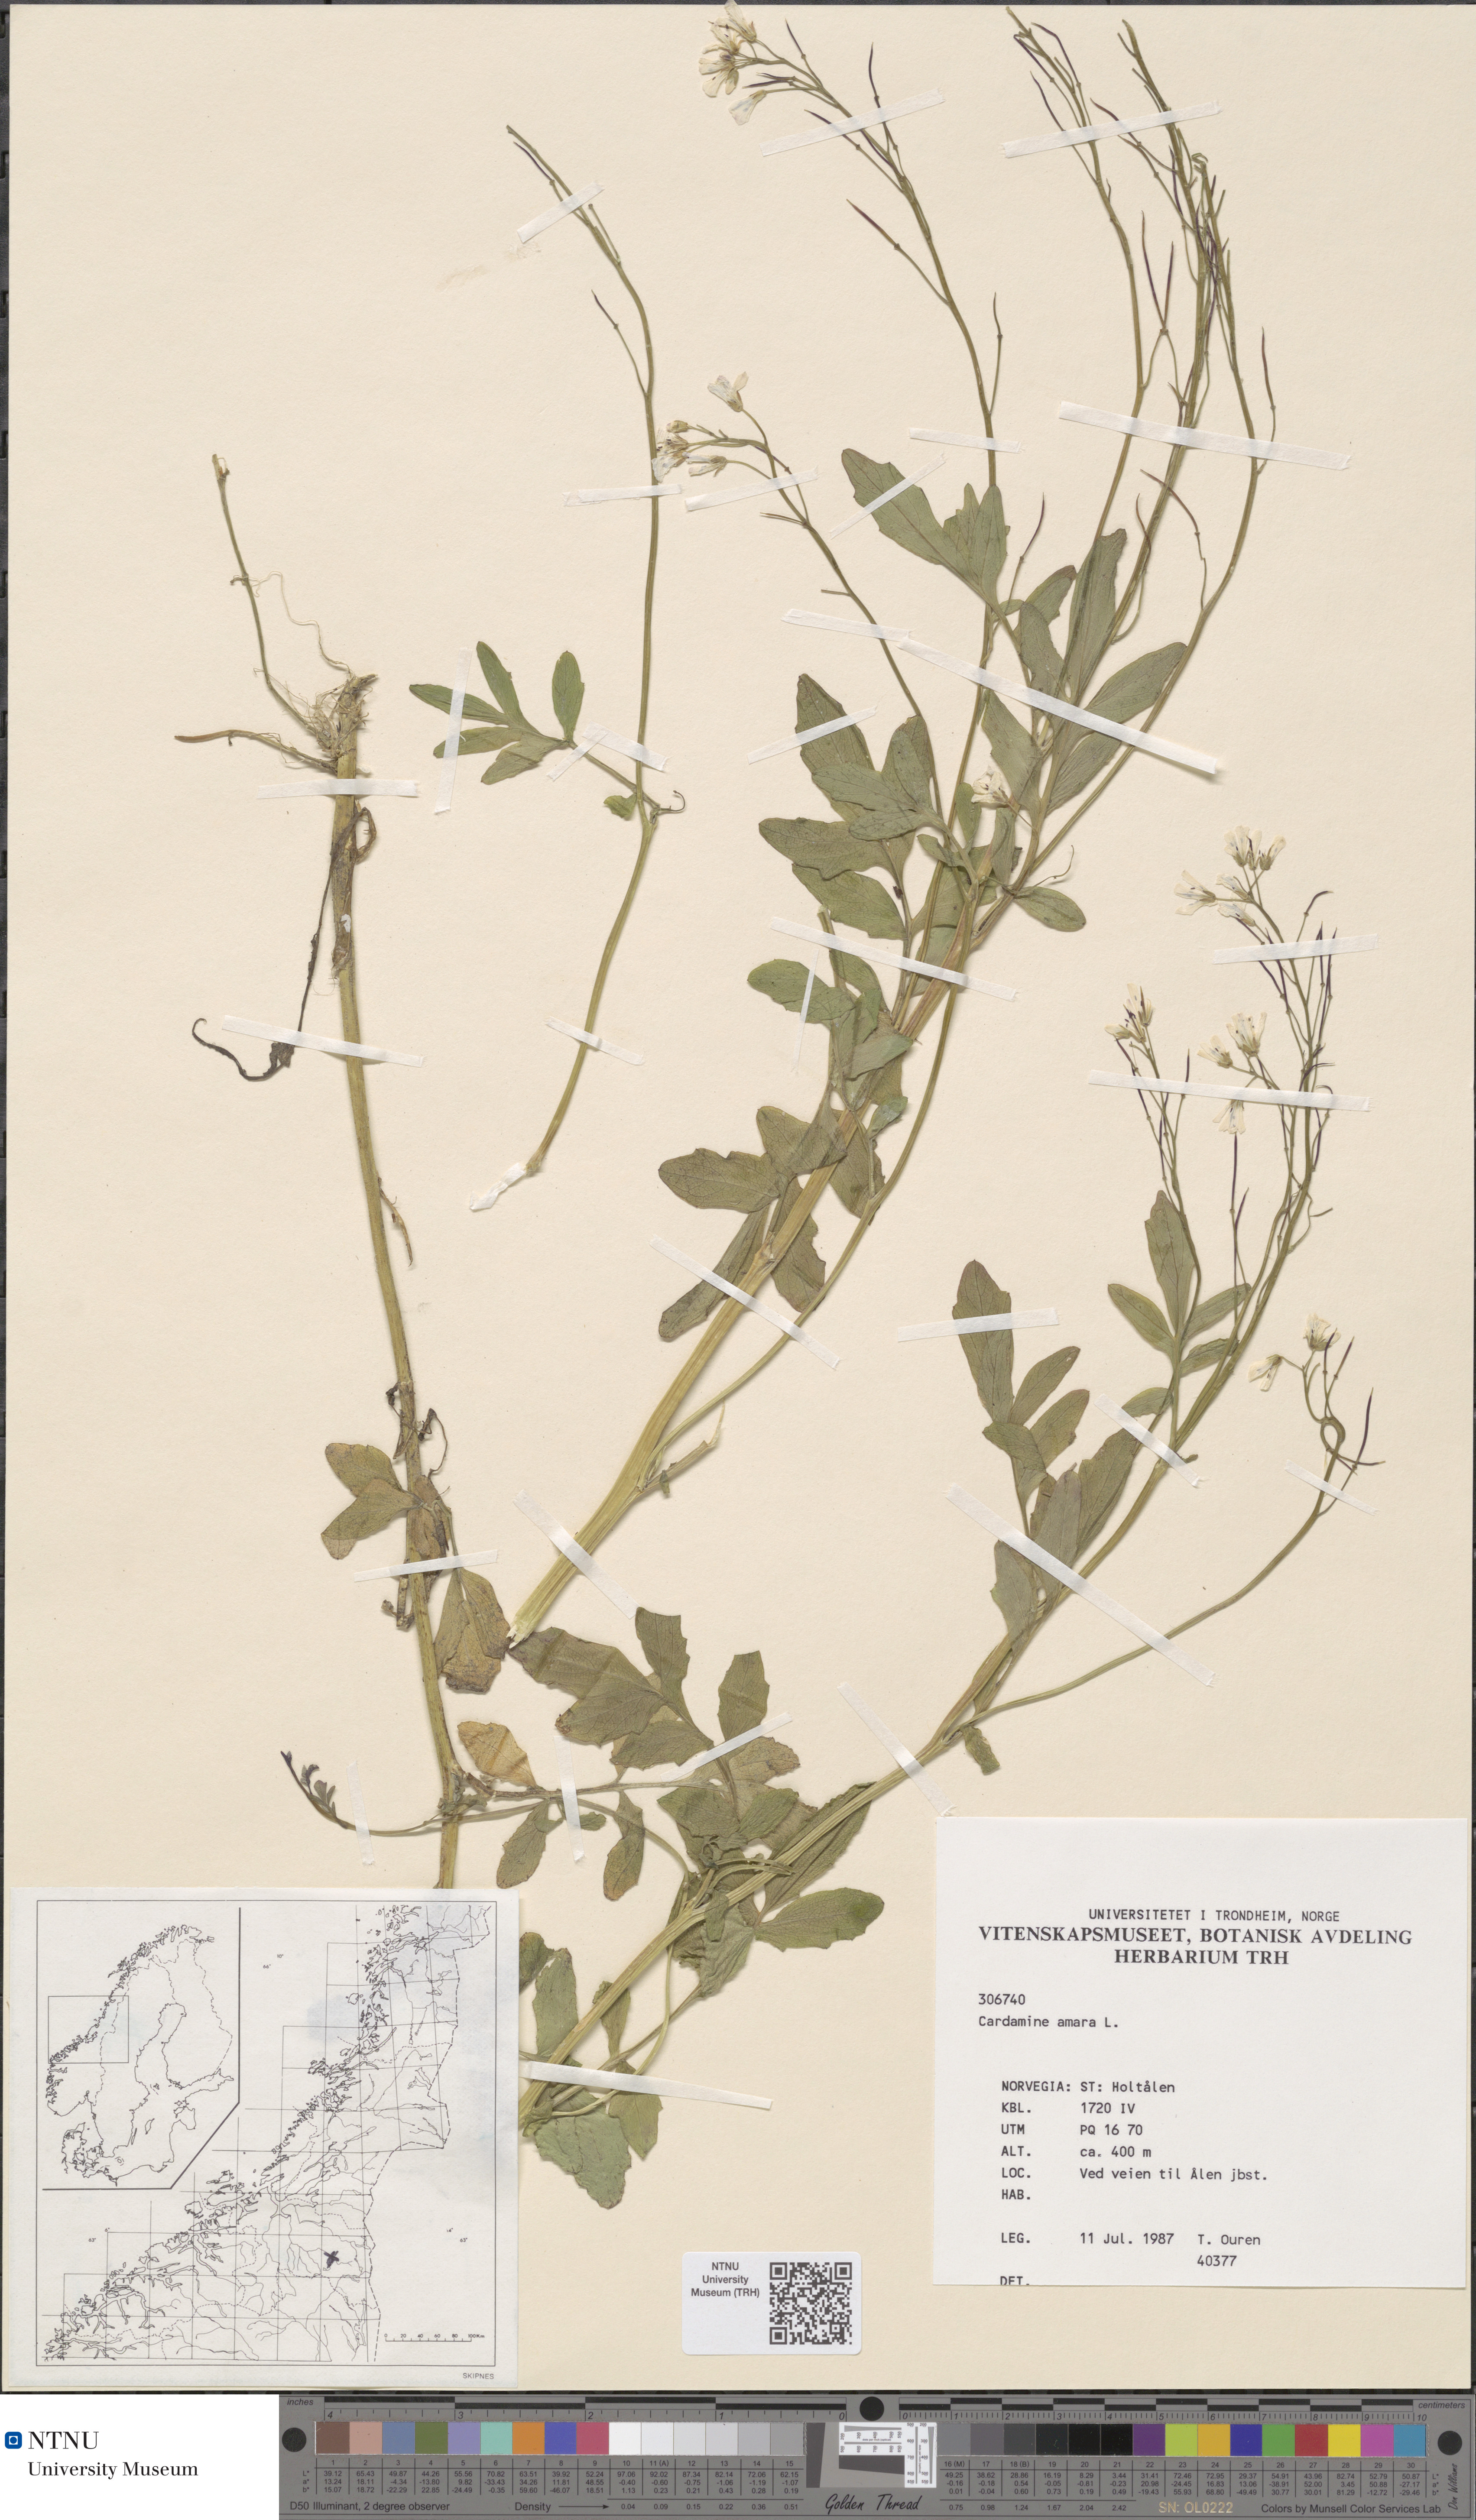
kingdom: Plantae
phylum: Tracheophyta
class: Magnoliopsida
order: Brassicales
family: Brassicaceae
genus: Cardamine
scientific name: Cardamine amara
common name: Large bitter-cress
